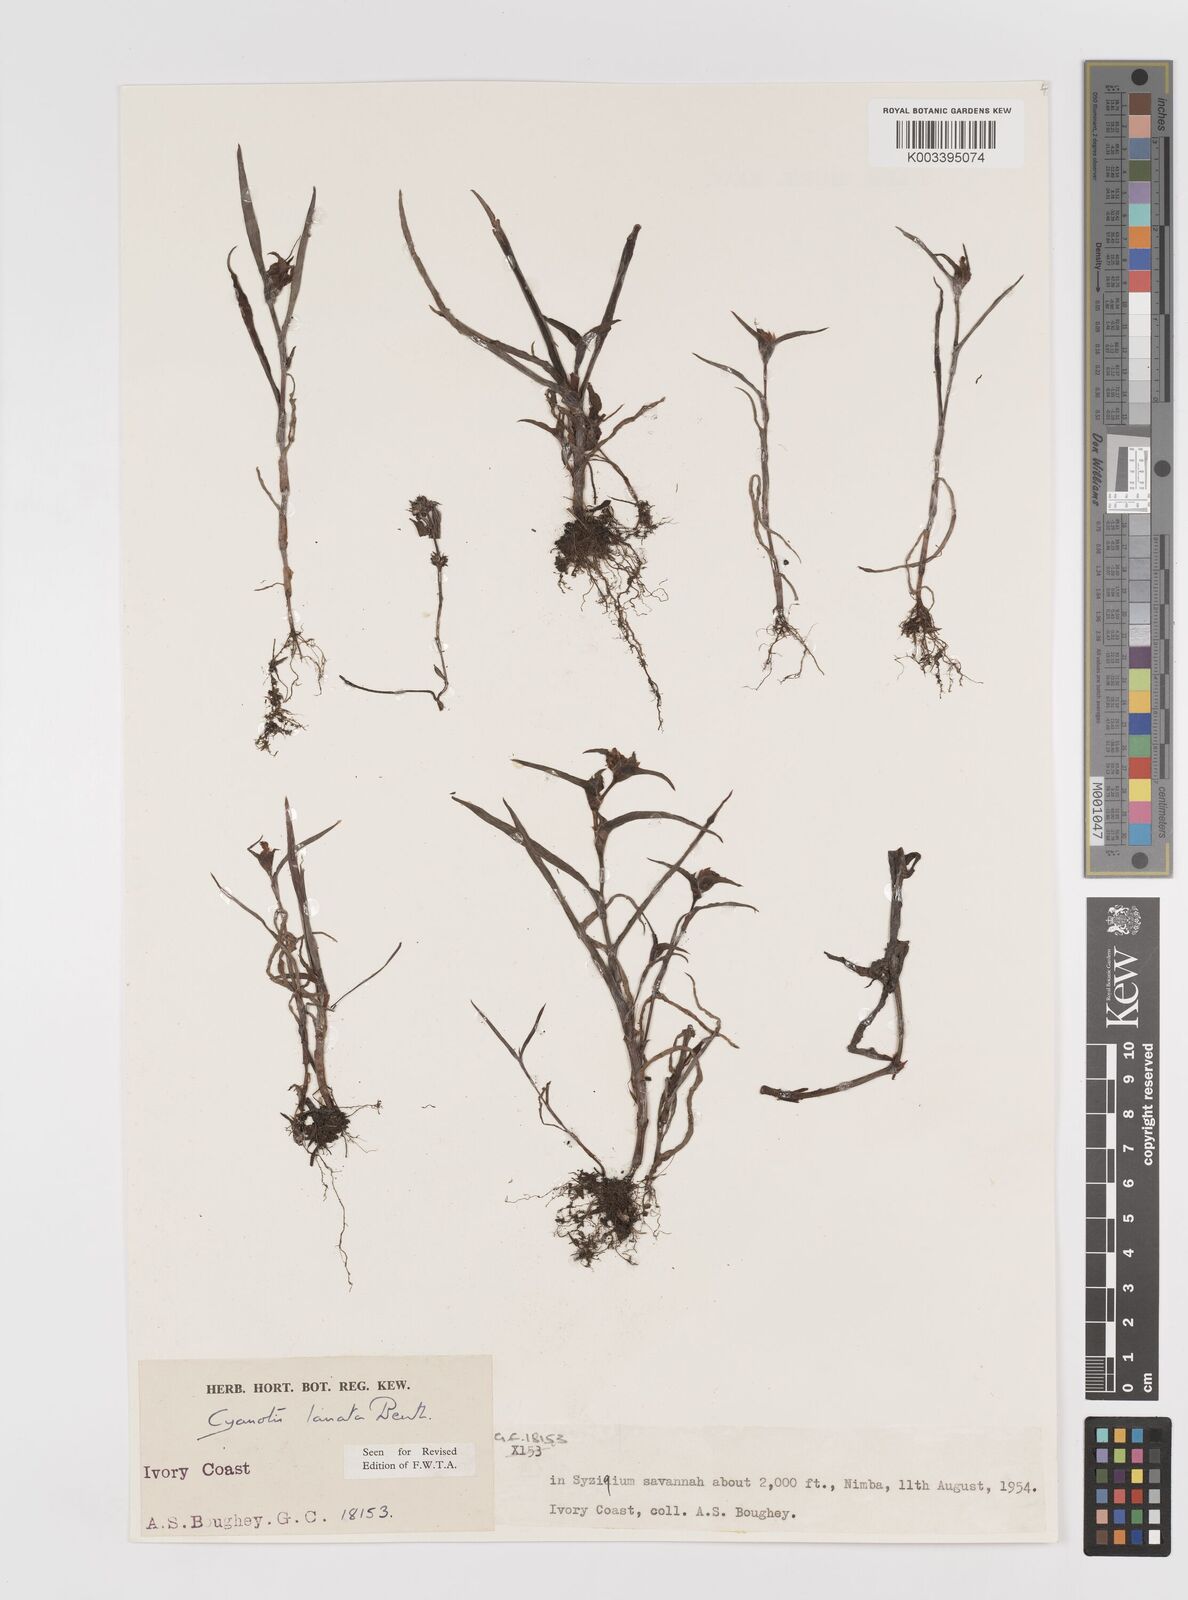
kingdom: Plantae
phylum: Tracheophyta
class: Liliopsida
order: Commelinales
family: Commelinaceae
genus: Cyanotis
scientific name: Cyanotis lanata
